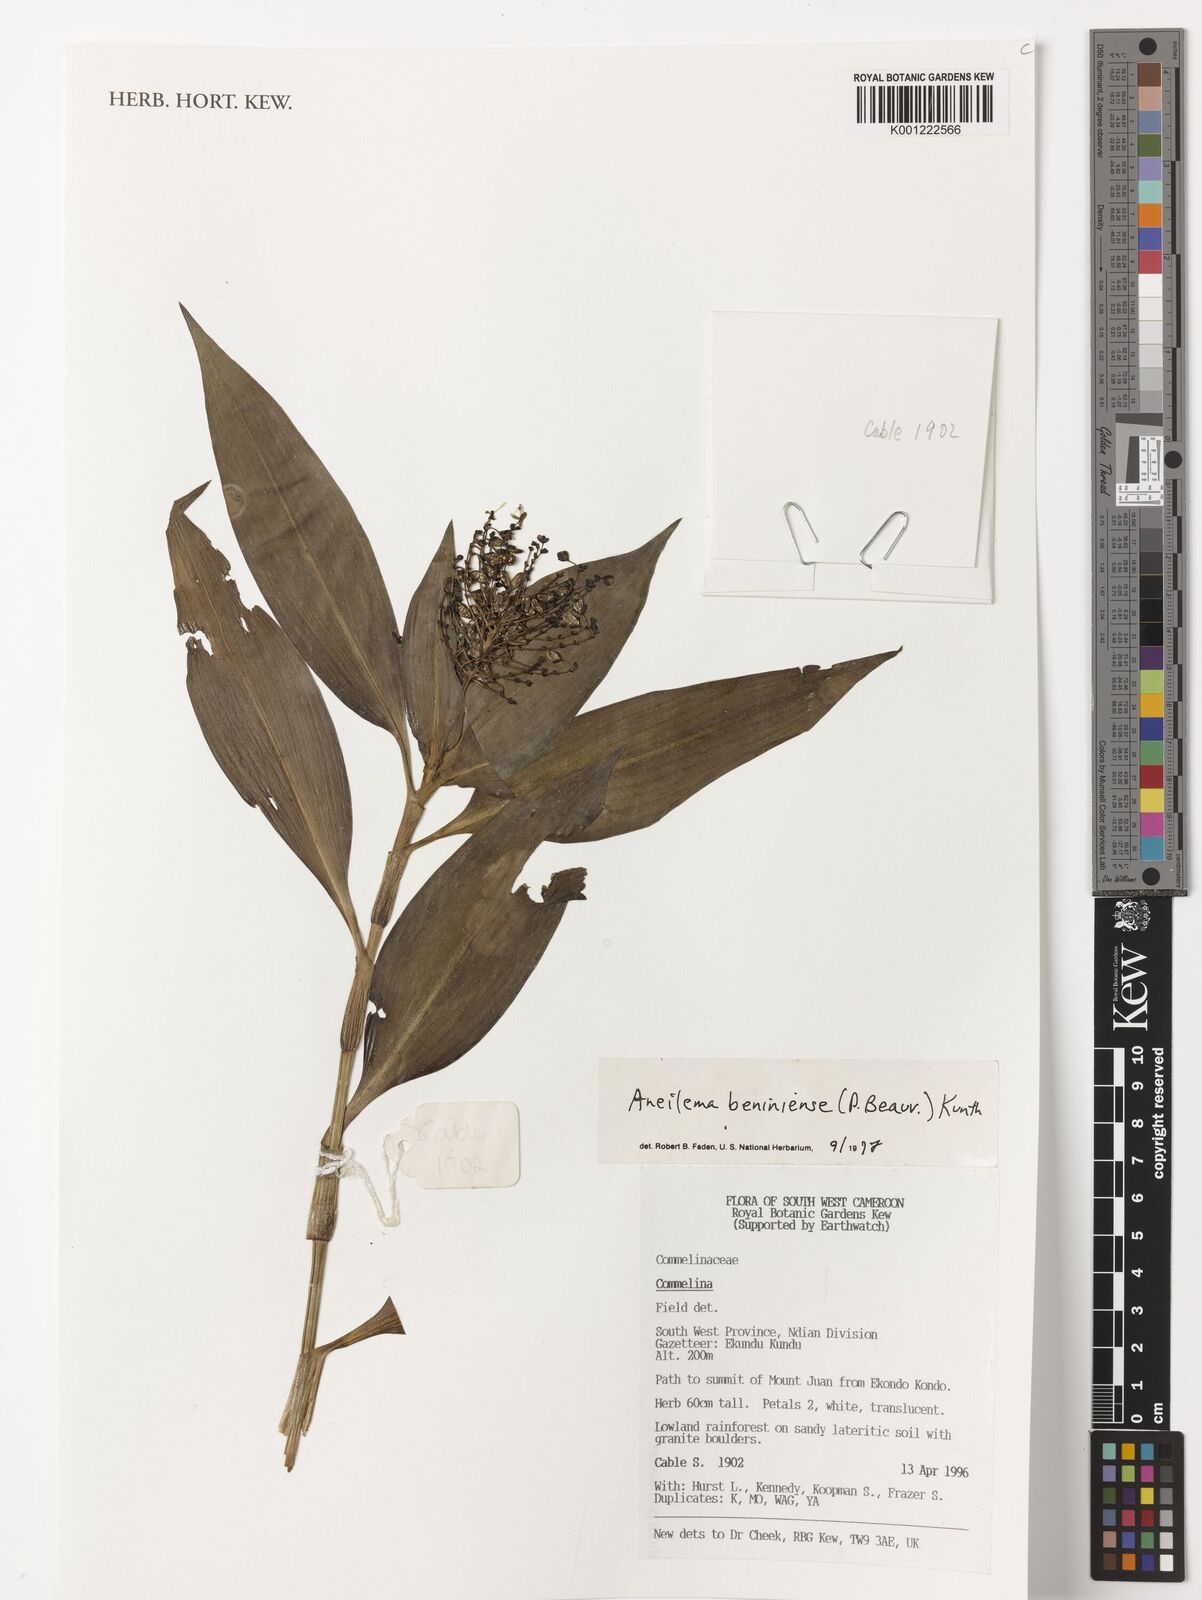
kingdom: Plantae
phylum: Tracheophyta
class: Liliopsida
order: Commelinales
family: Commelinaceae
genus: Aneilema
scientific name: Aneilema beniniense
